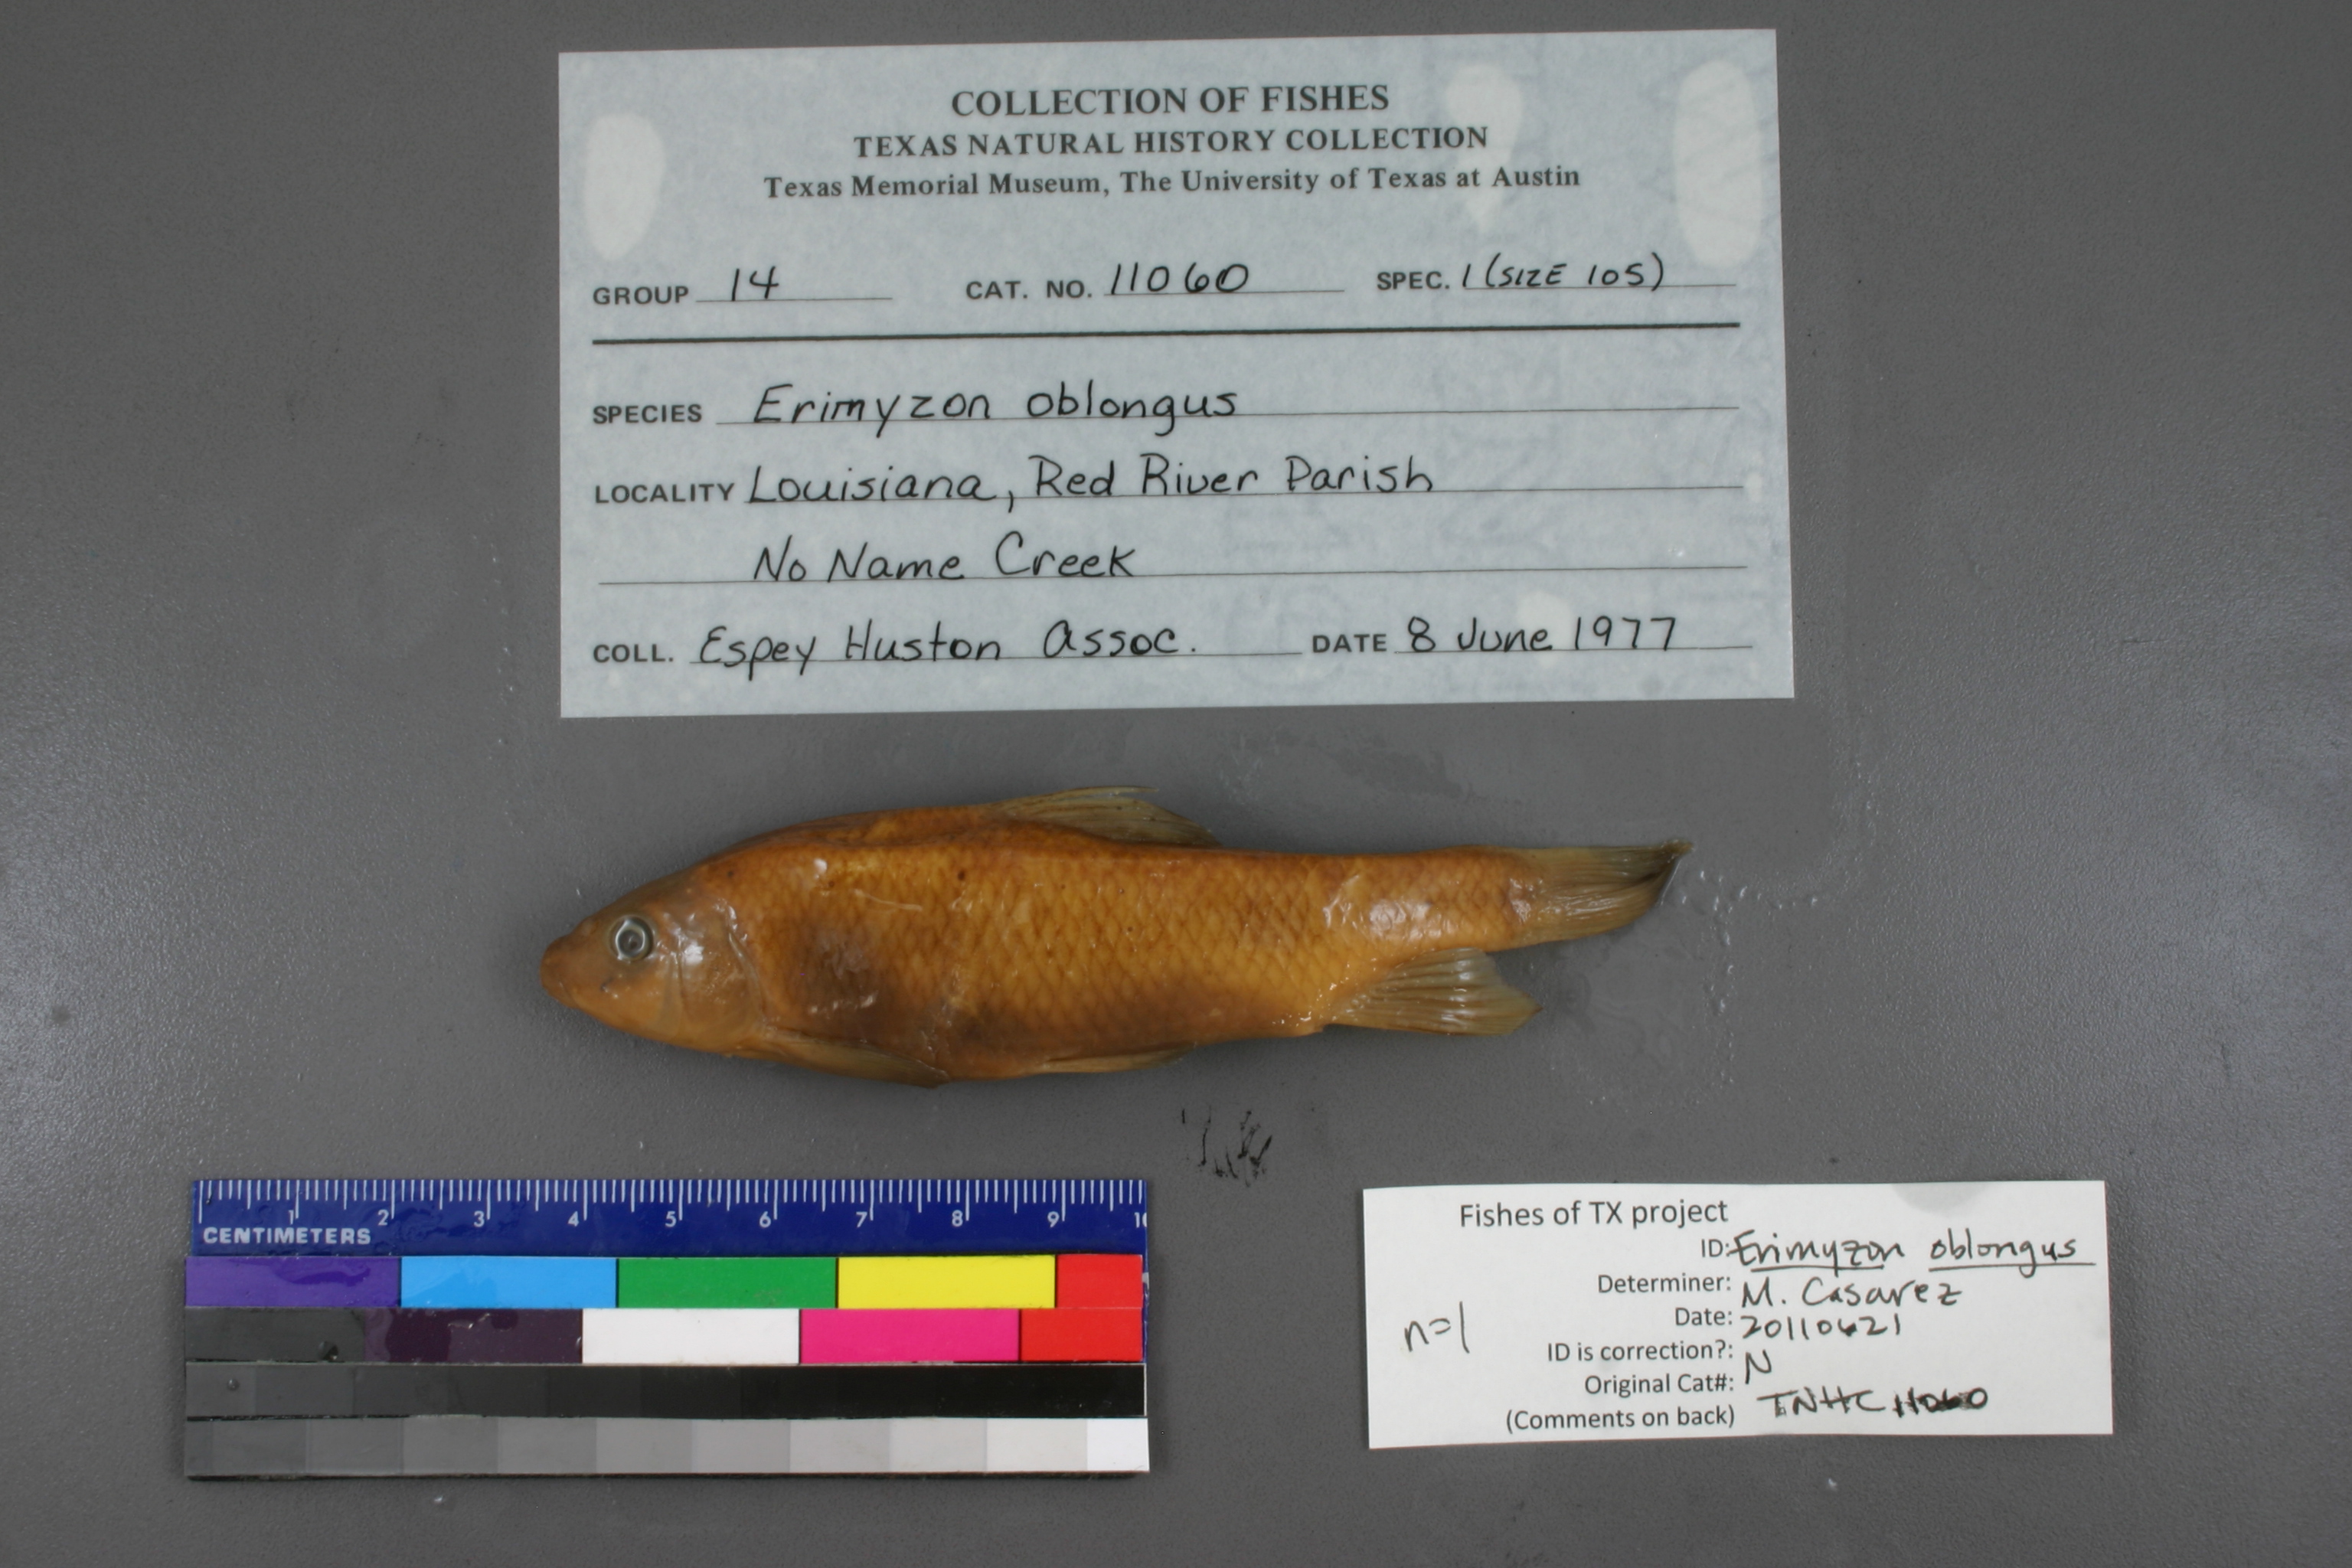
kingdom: Animalia
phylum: Chordata
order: Cypriniformes
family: Catostomidae
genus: Erimyzon
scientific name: Erimyzon oblongus
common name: Eastern creek chubsucker
